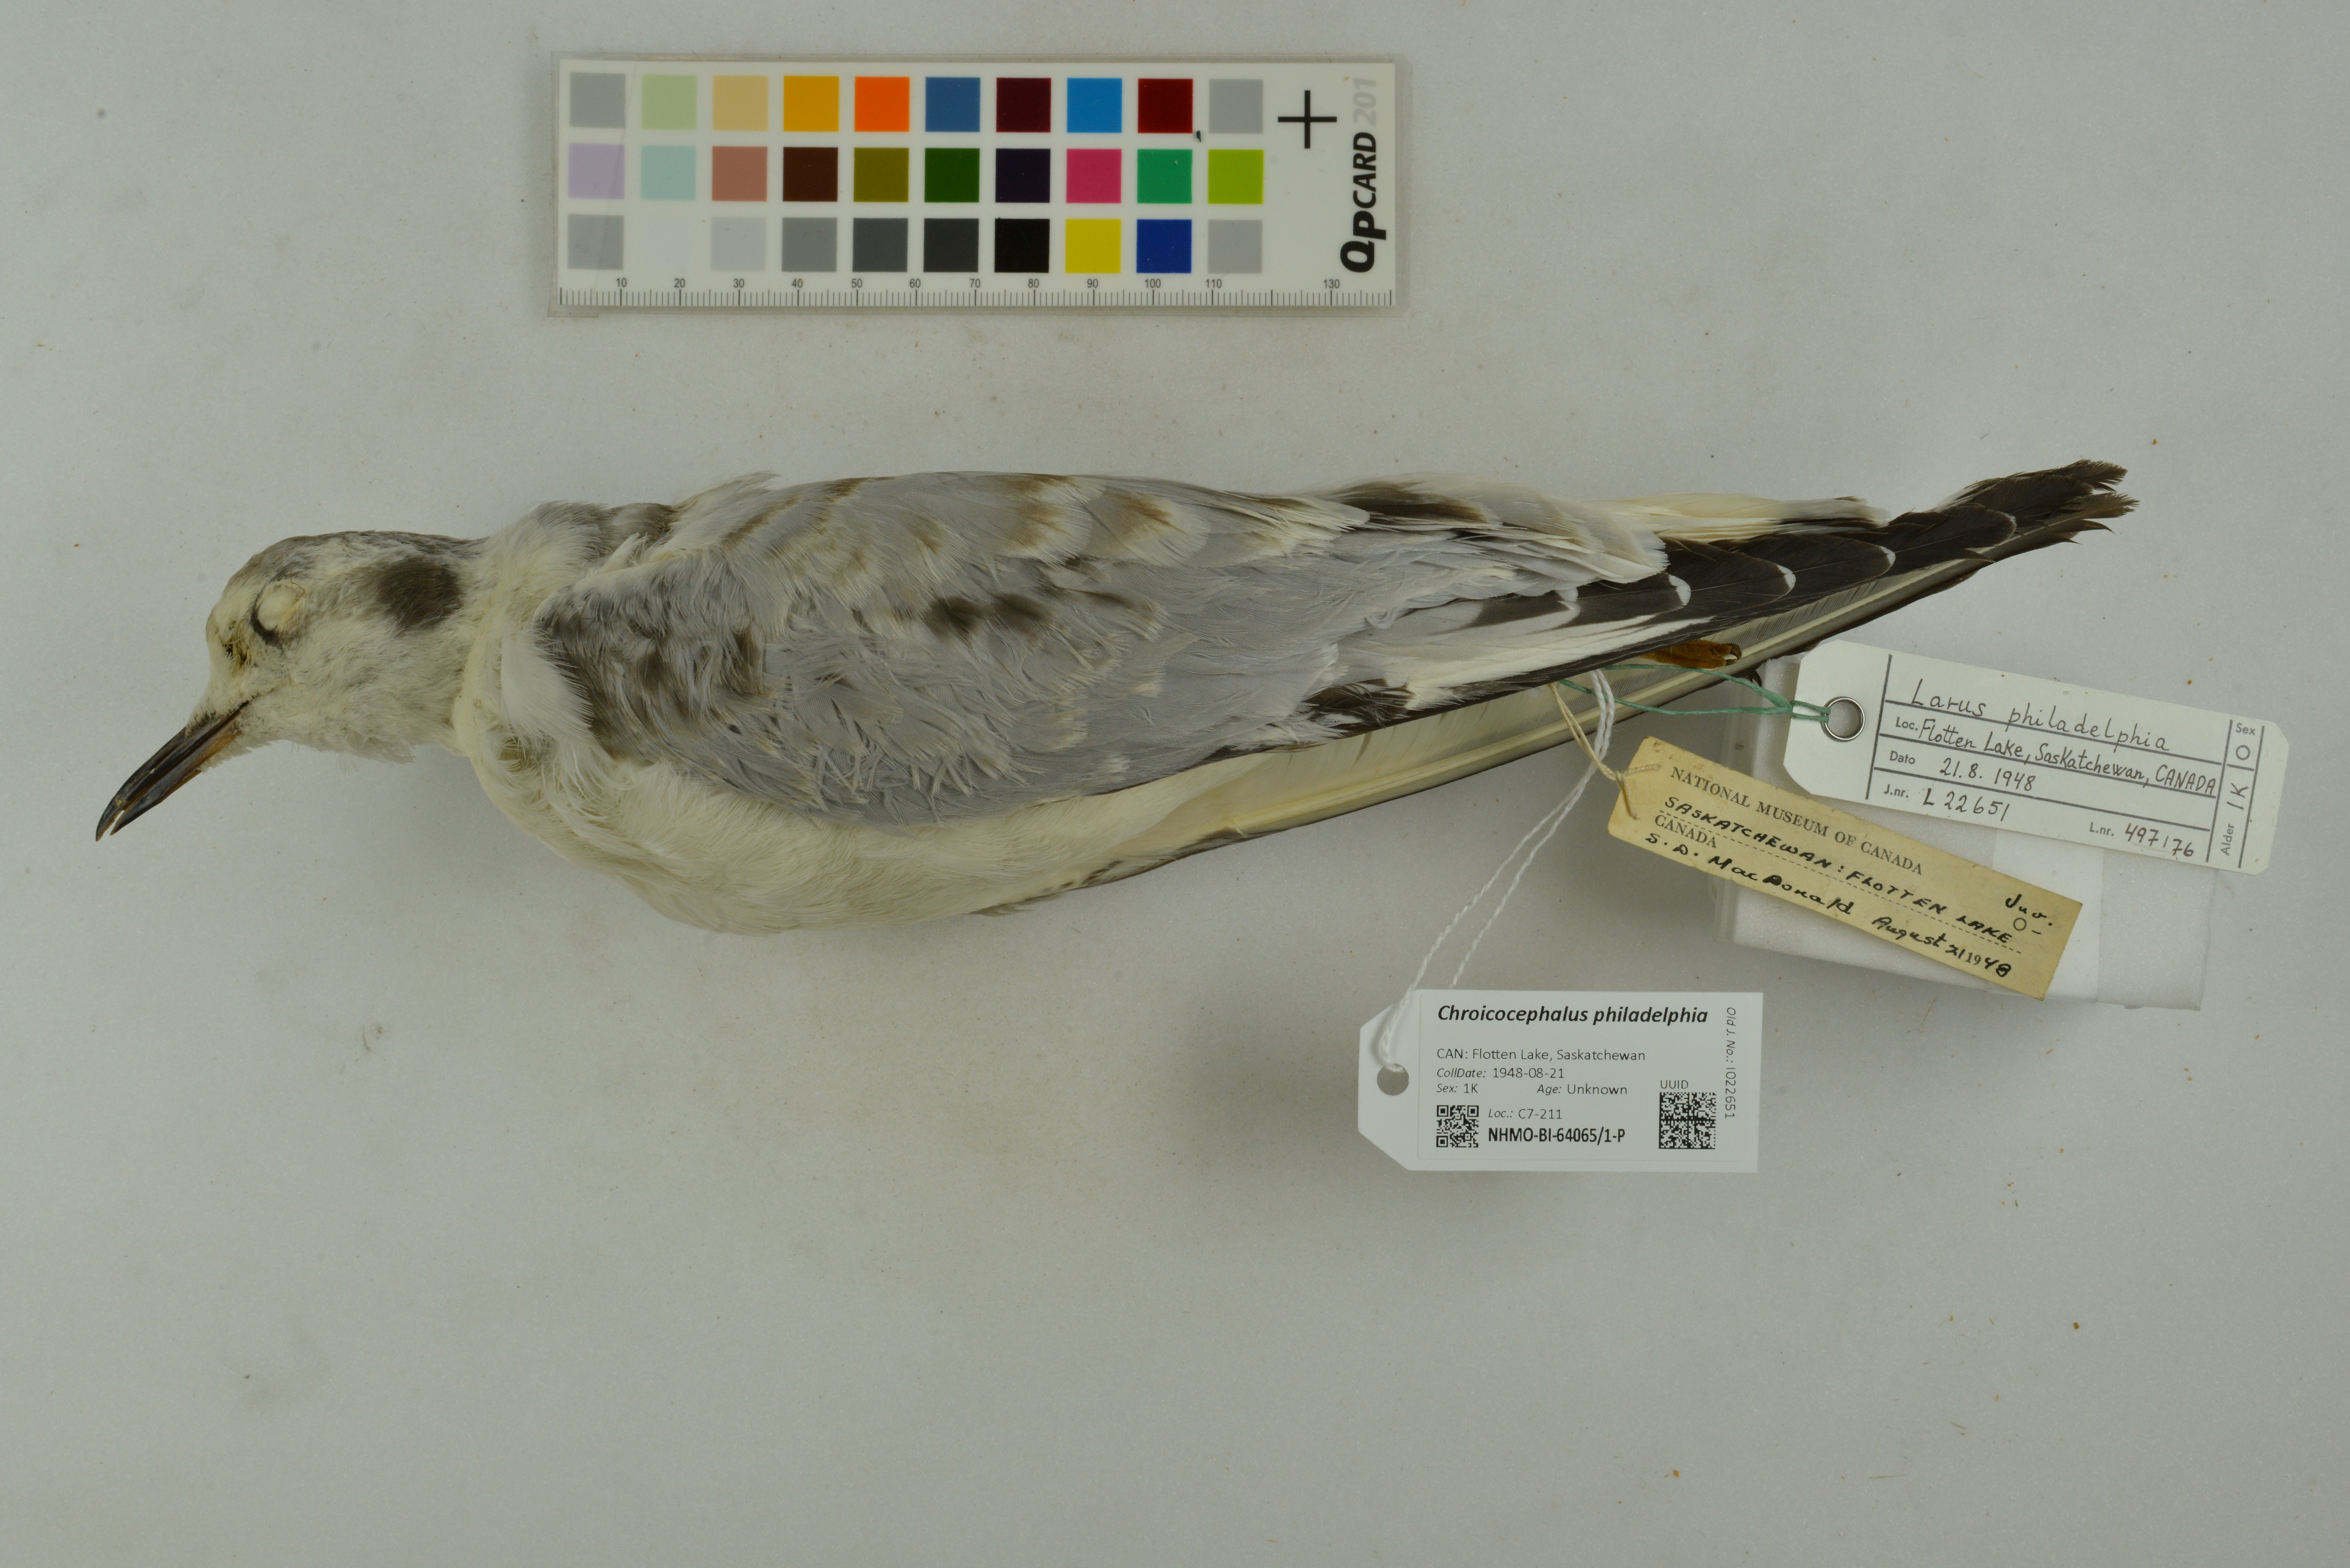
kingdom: Animalia
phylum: Chordata
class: Aves
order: Charadriiformes
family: Laridae
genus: Chroicocephalus
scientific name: Chroicocephalus philadelphia
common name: Bonaparte's gull
